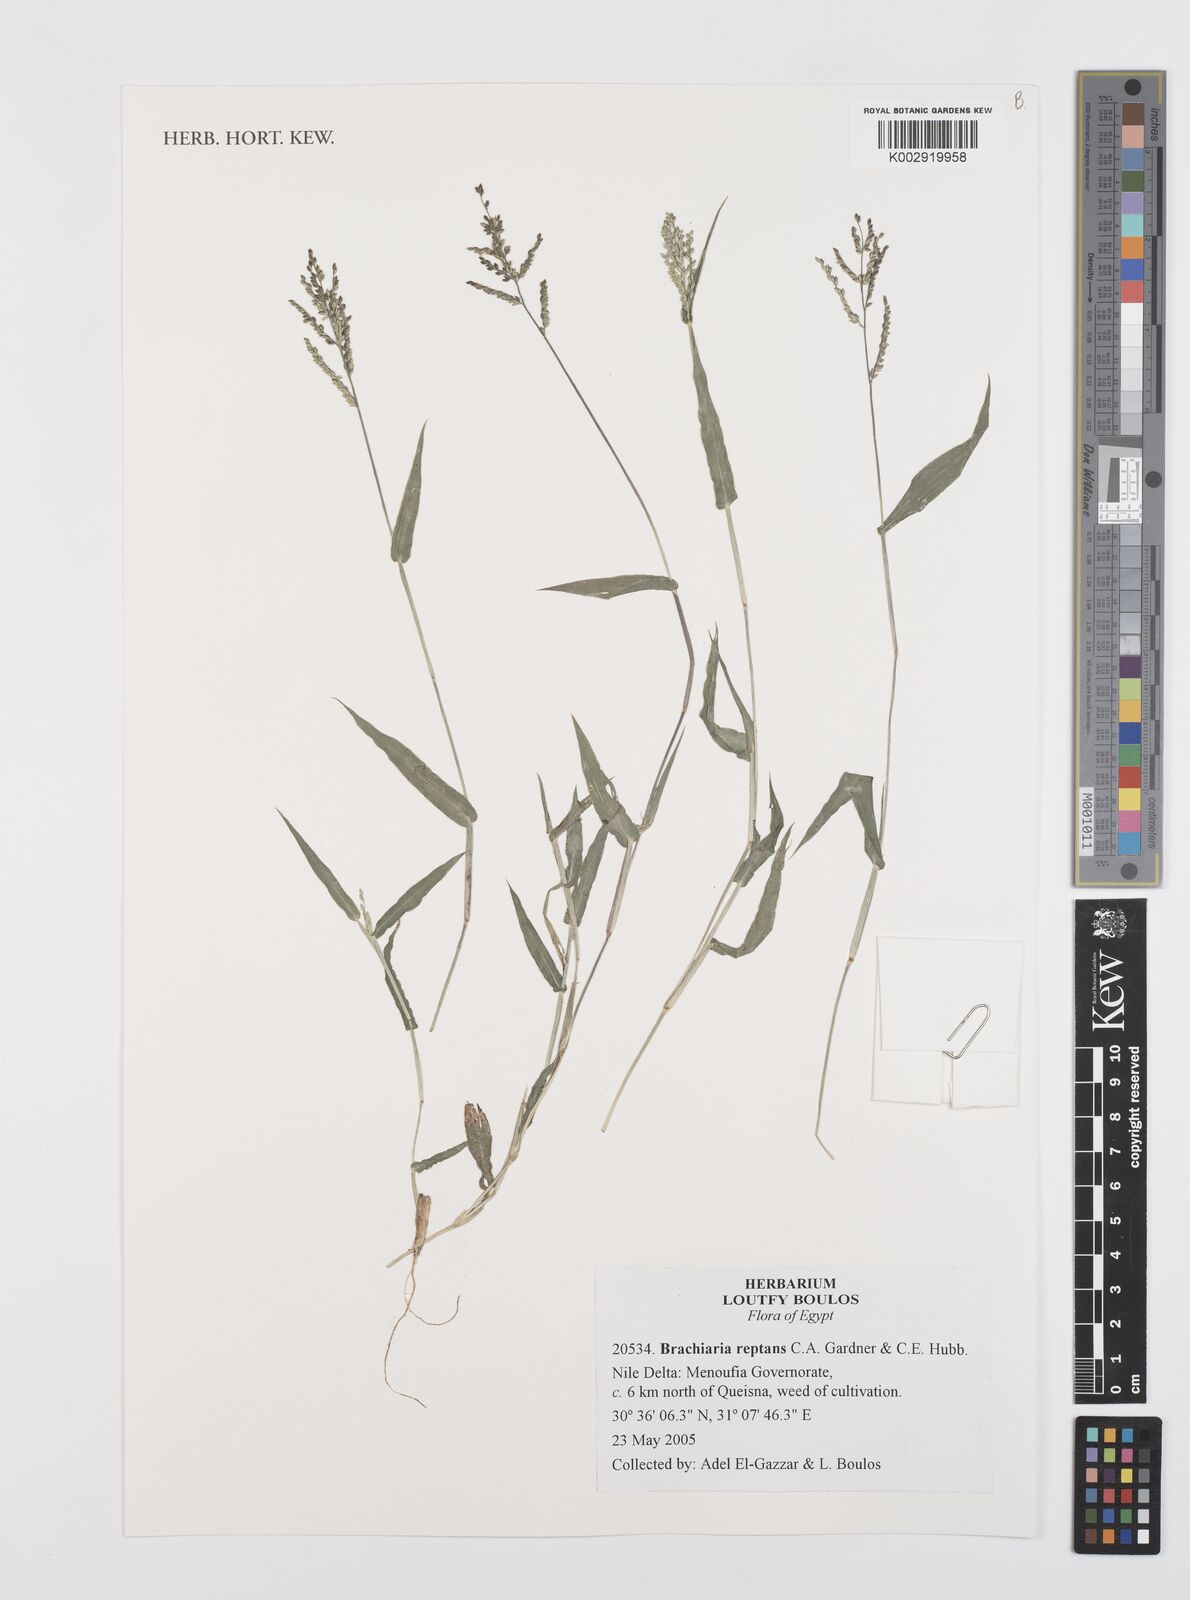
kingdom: Plantae
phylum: Tracheophyta
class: Liliopsida
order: Poales
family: Poaceae
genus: Urochloa
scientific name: Urochloa reptans
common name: Sprawling signalgrass
